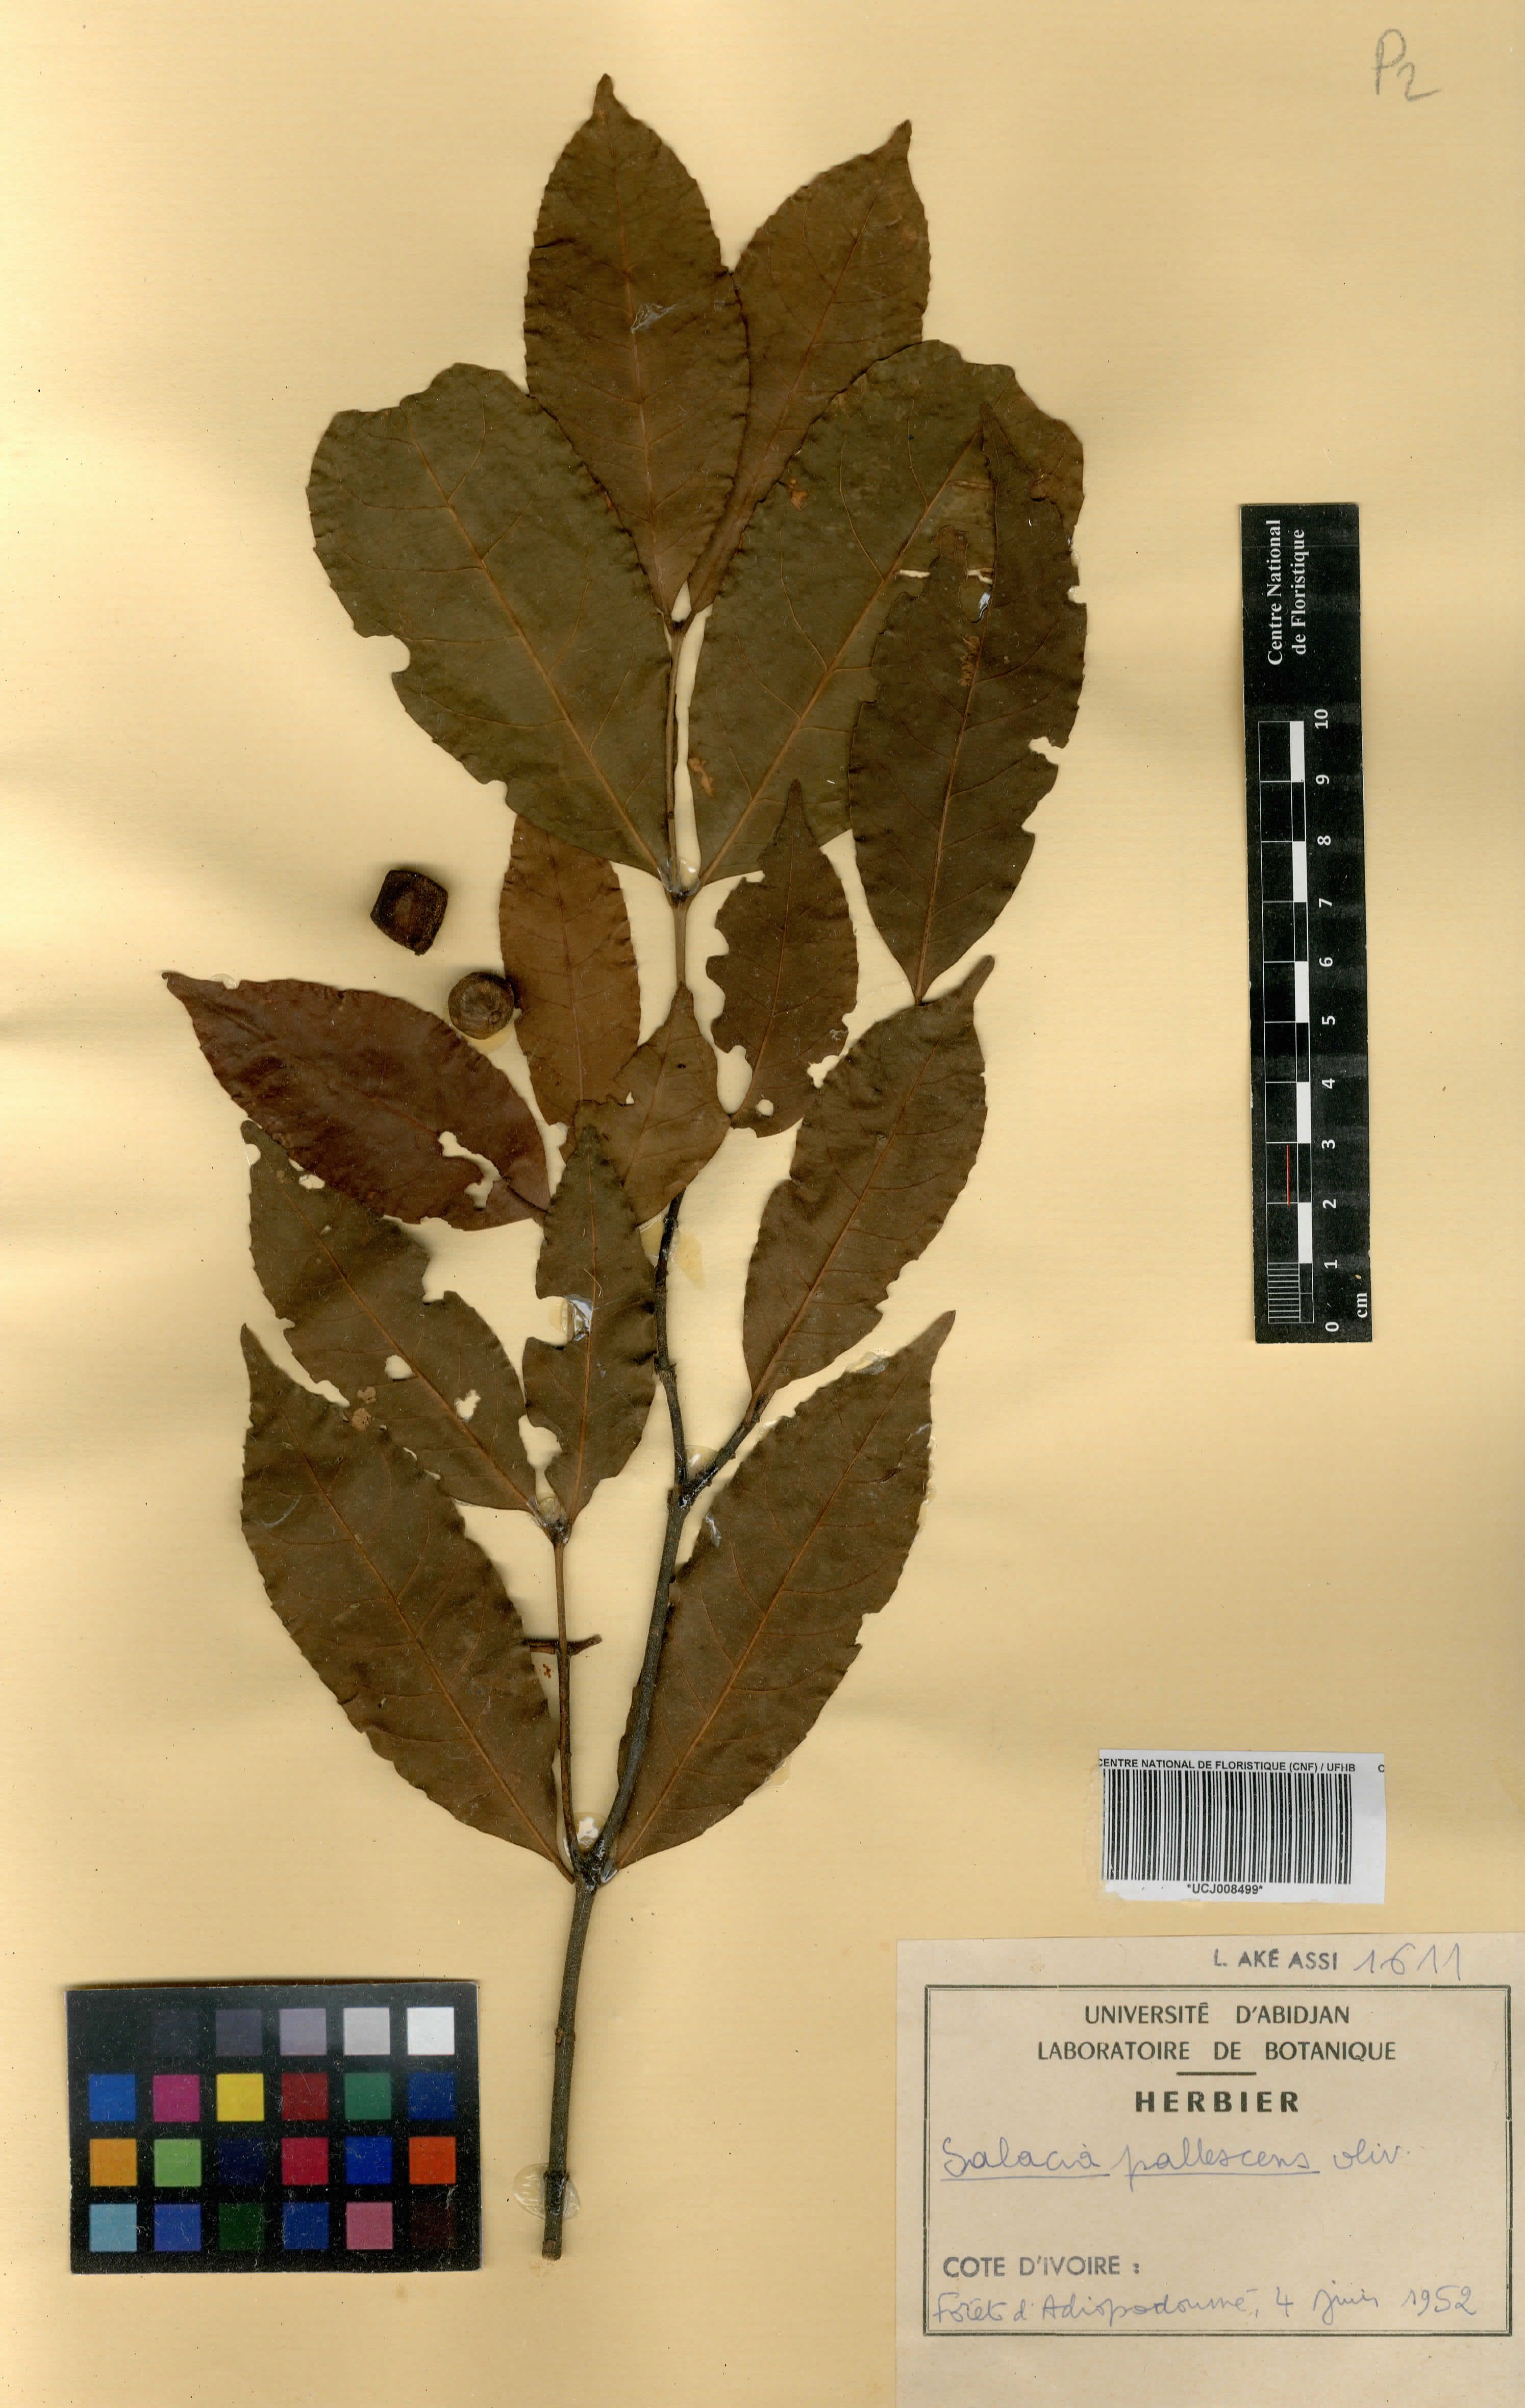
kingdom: Plantae
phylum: Tracheophyta
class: Magnoliopsida
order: Celastrales
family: Celastraceae
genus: Salacia
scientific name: Salacia pallescens
